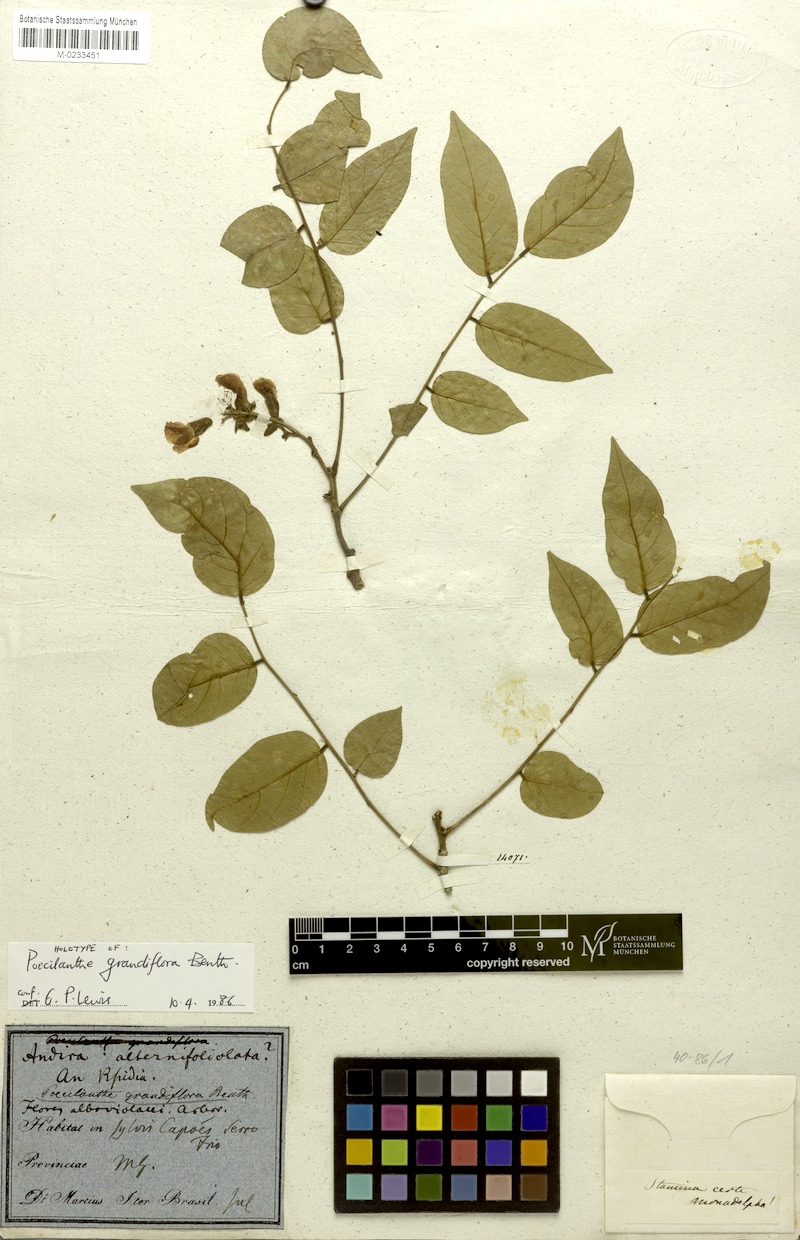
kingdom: Plantae
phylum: Tracheophyta
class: Magnoliopsida
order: Fabales
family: Fabaceae
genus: Poecilanthe
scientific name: Poecilanthe falcata
